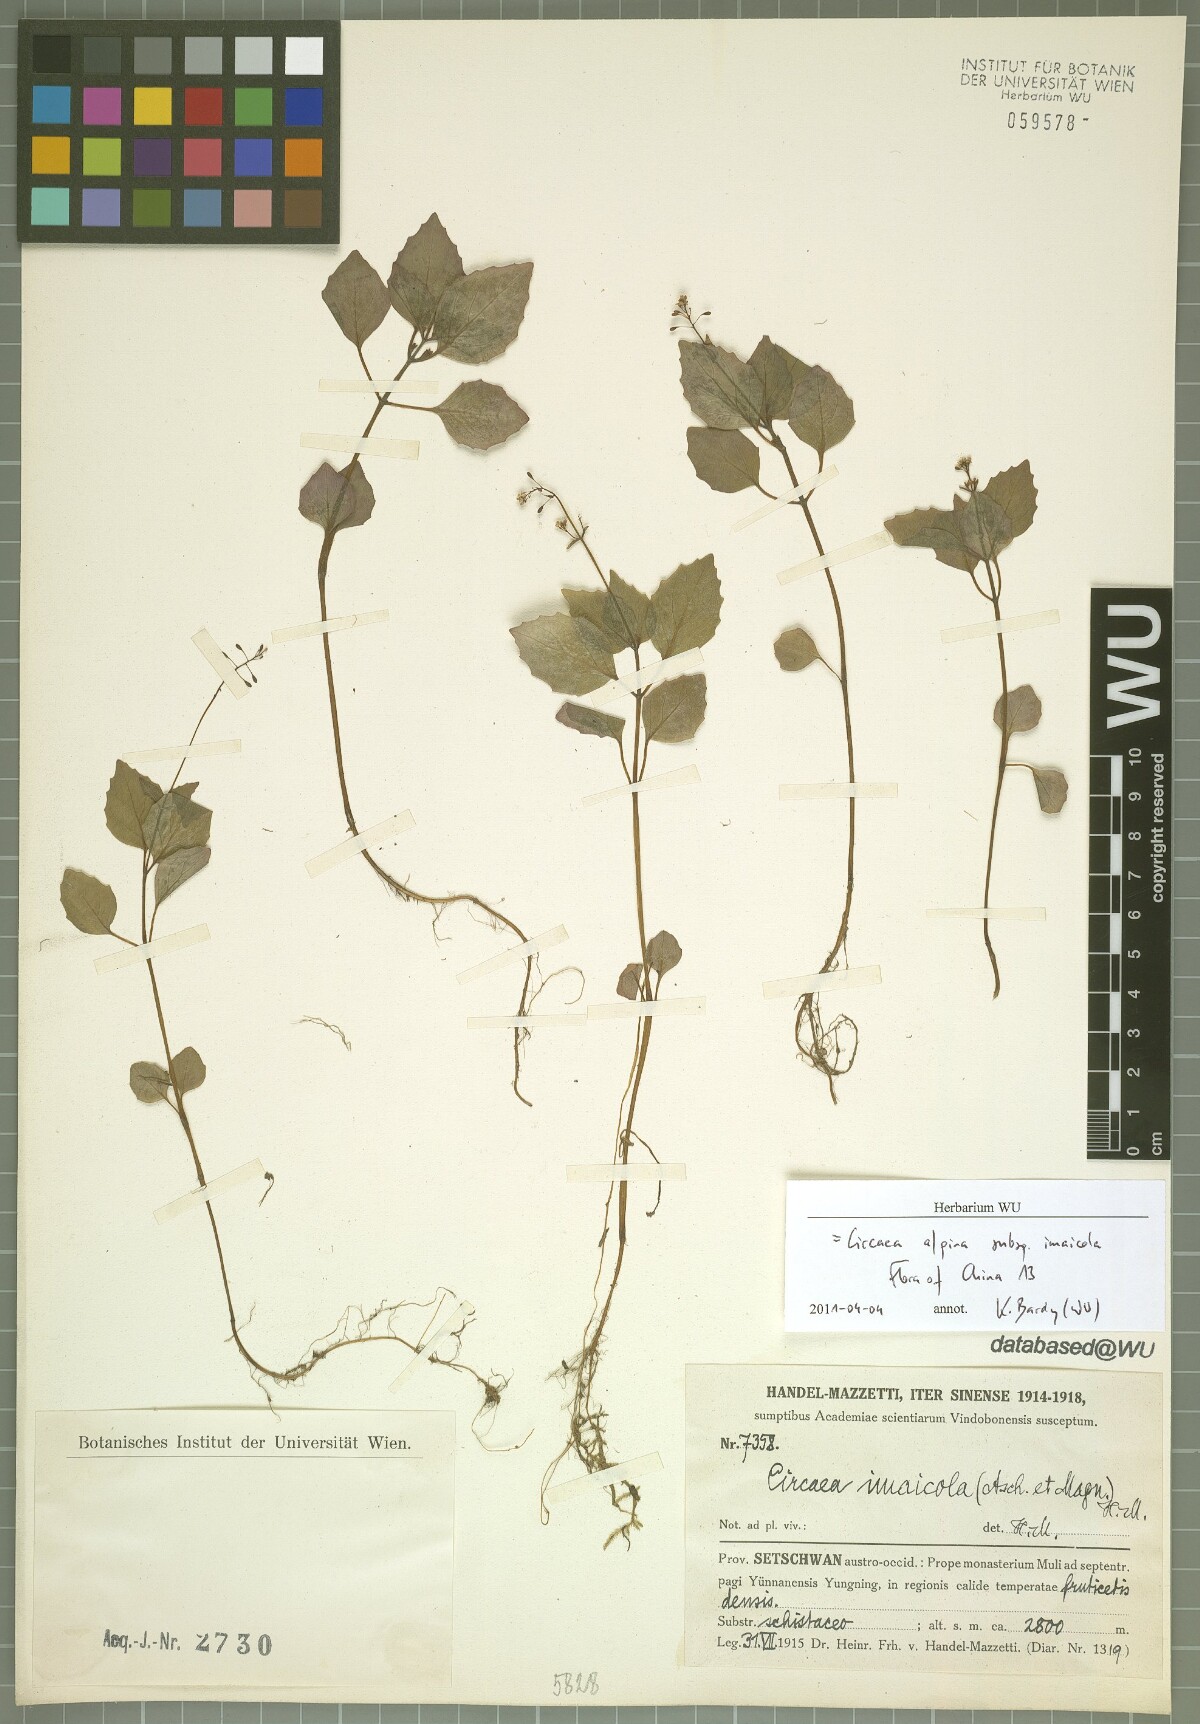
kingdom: Plantae
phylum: Tracheophyta
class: Magnoliopsida
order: Myrtales
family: Onagraceae
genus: Circaea
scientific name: Circaea alpina
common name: Alpine enchanter's-nightshade
